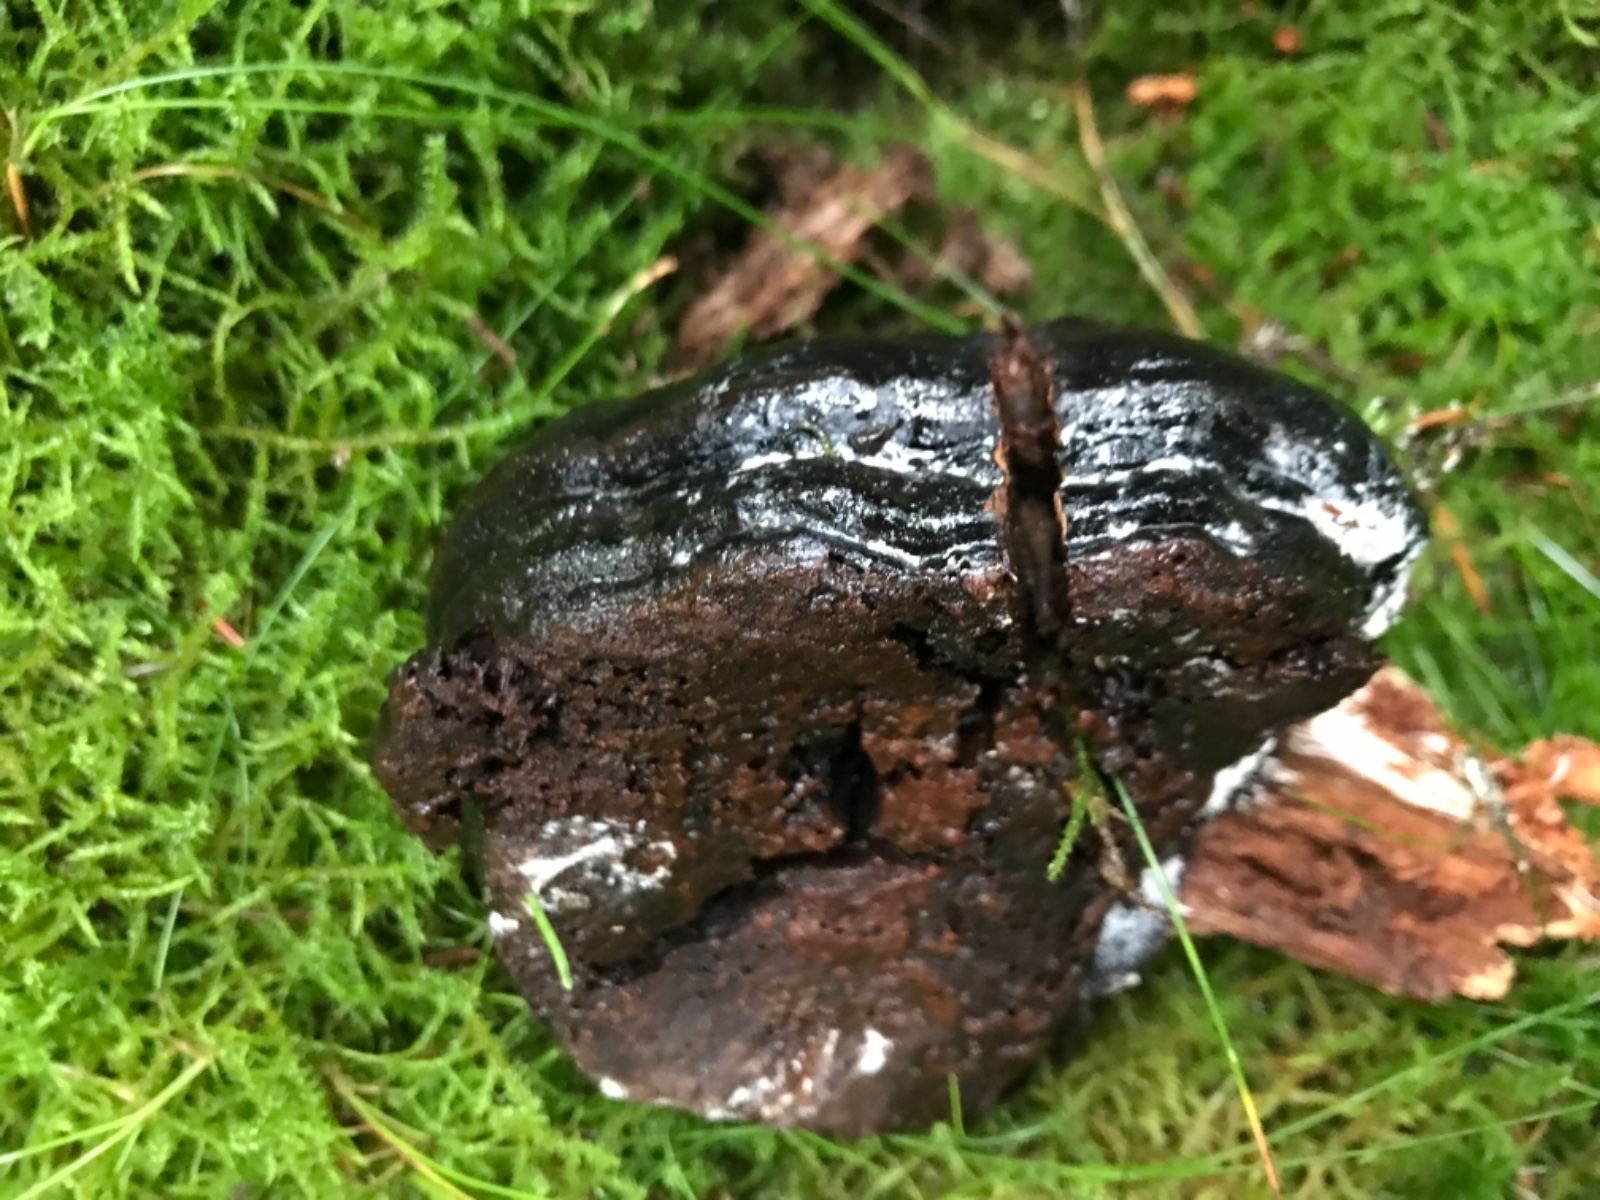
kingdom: Fungi
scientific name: Fungi
